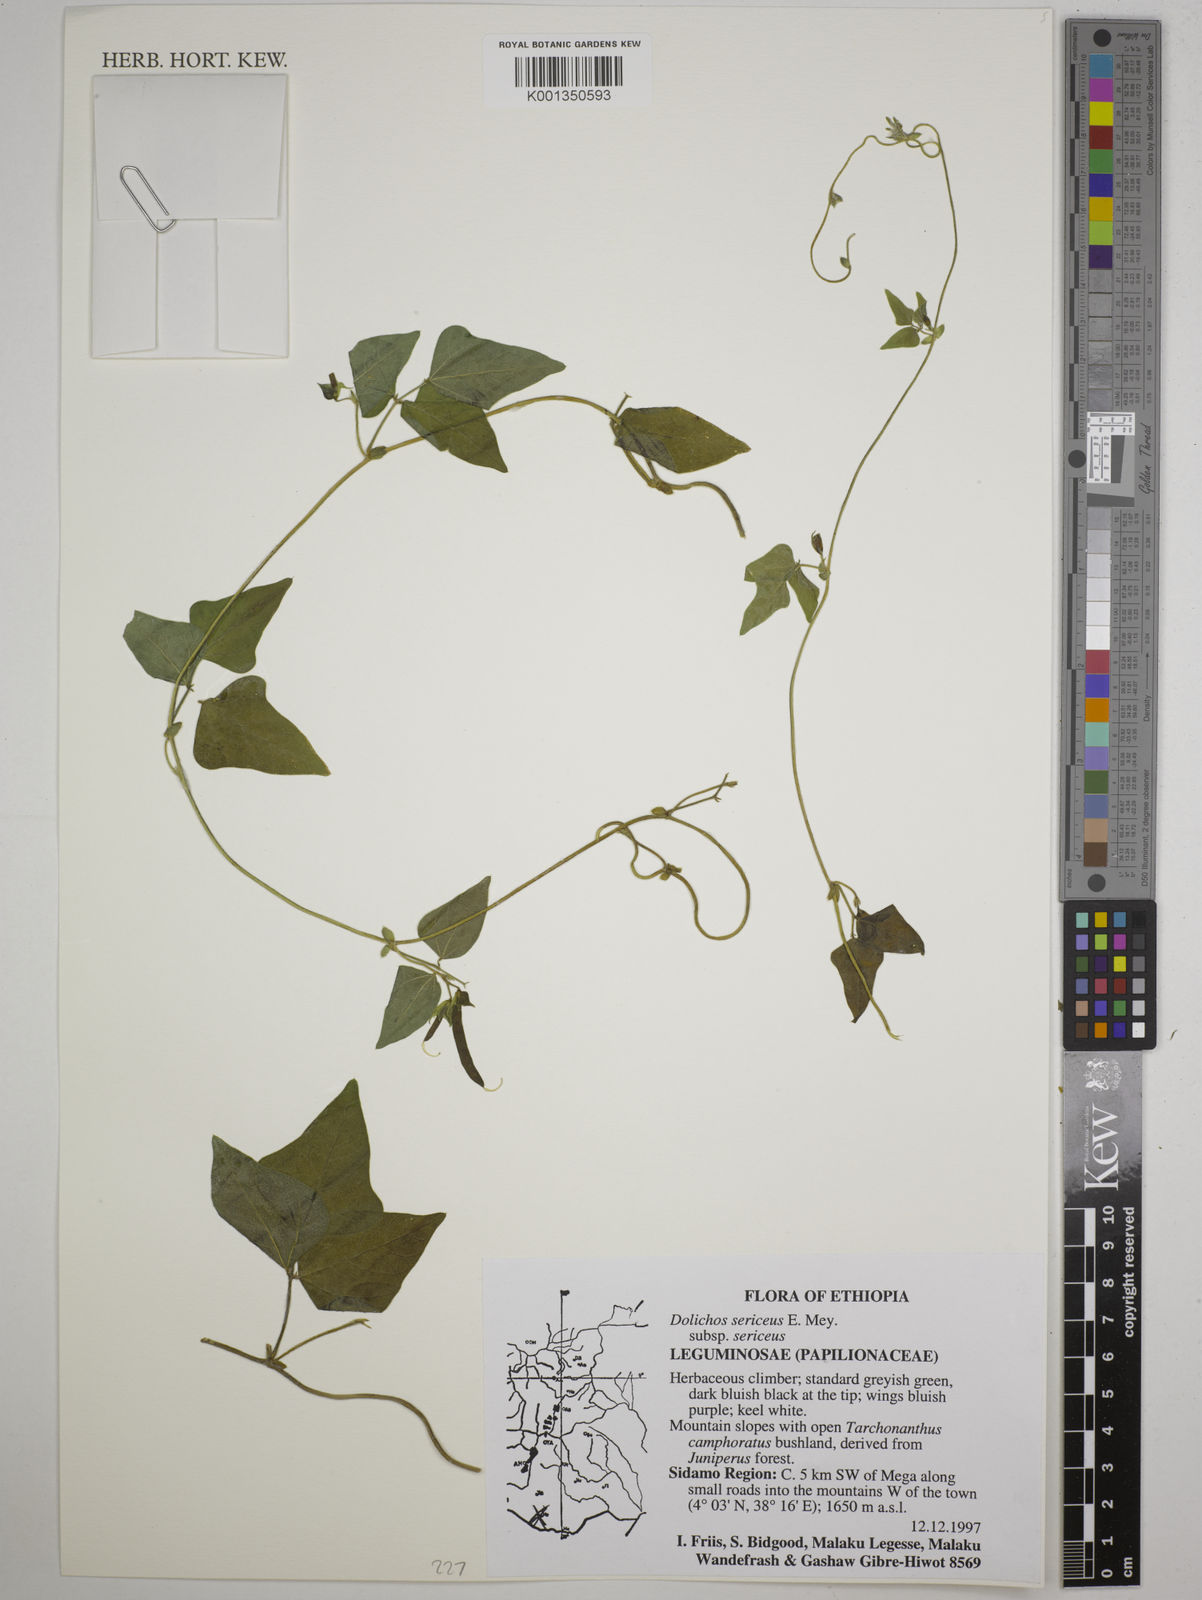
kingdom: Plantae
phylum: Tracheophyta
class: Magnoliopsida
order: Fabales
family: Fabaceae
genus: Dolichos
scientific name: Dolichos sericeus
